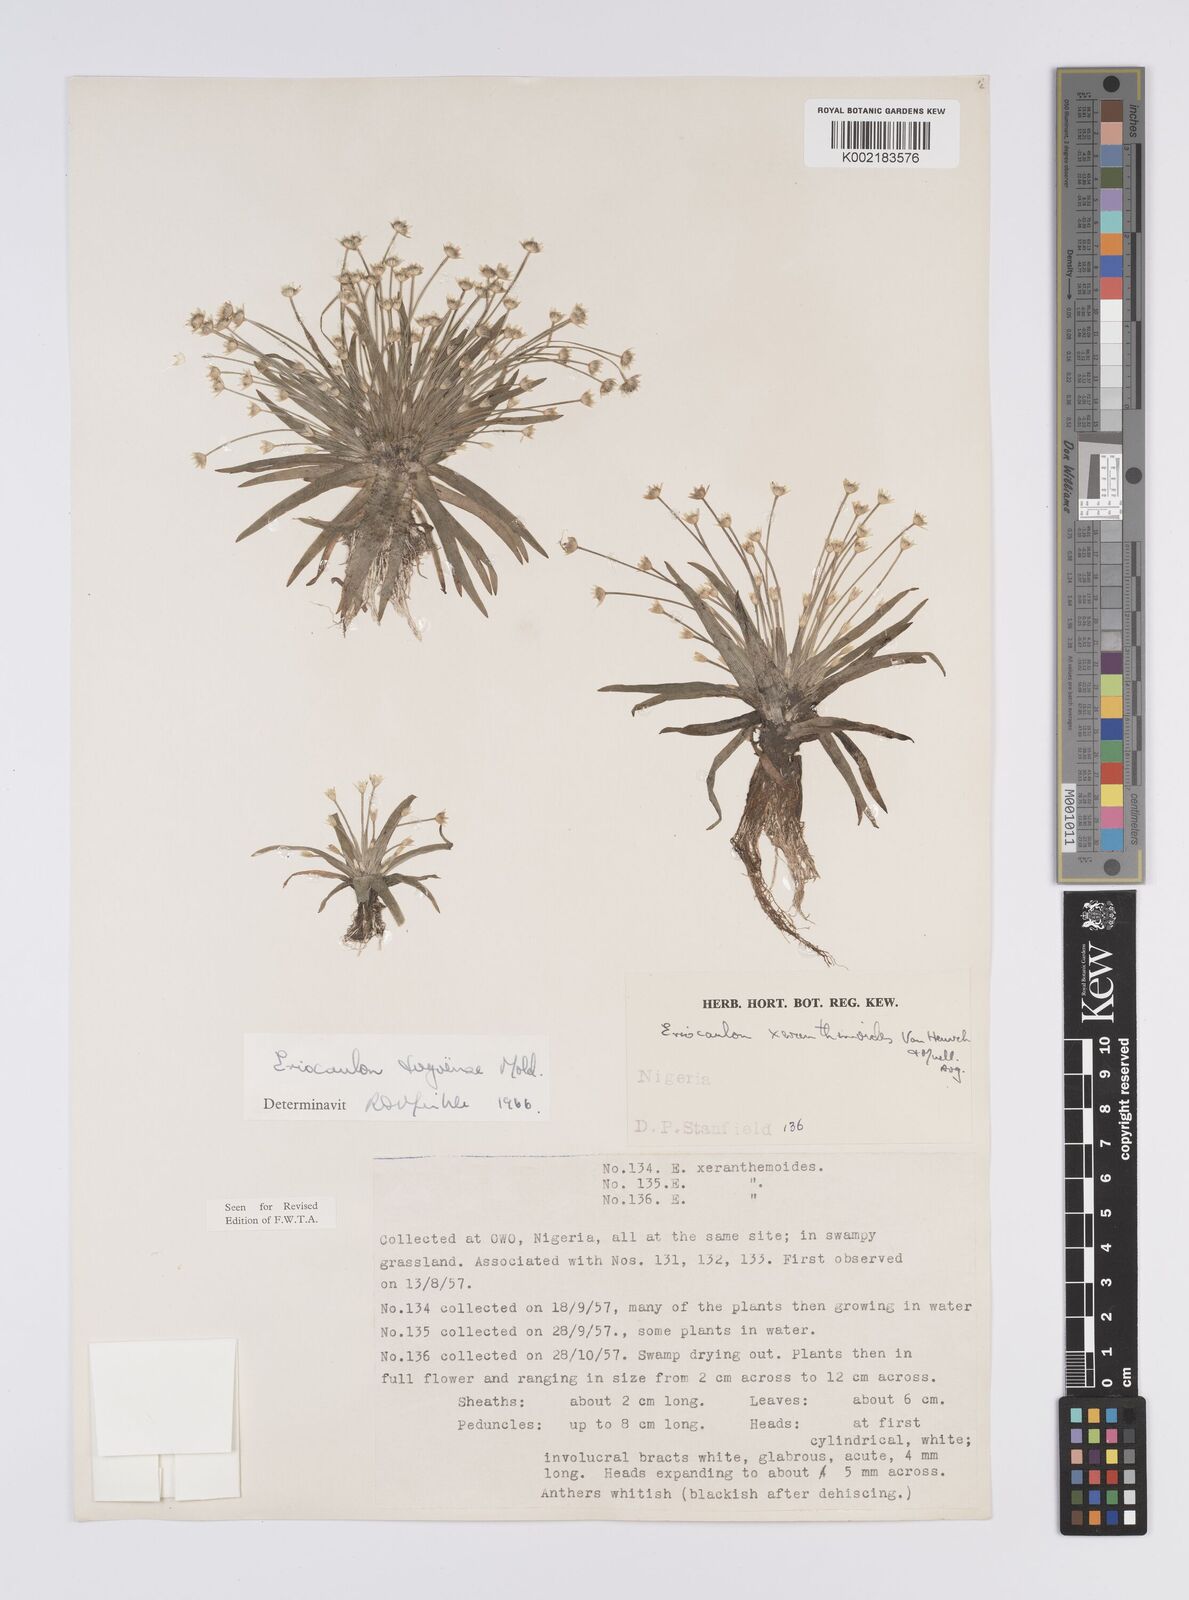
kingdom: Plantae
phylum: Tracheophyta
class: Liliopsida
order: Poales
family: Eriocaulaceae
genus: Eriocaulon
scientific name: Eriocaulon togoense
